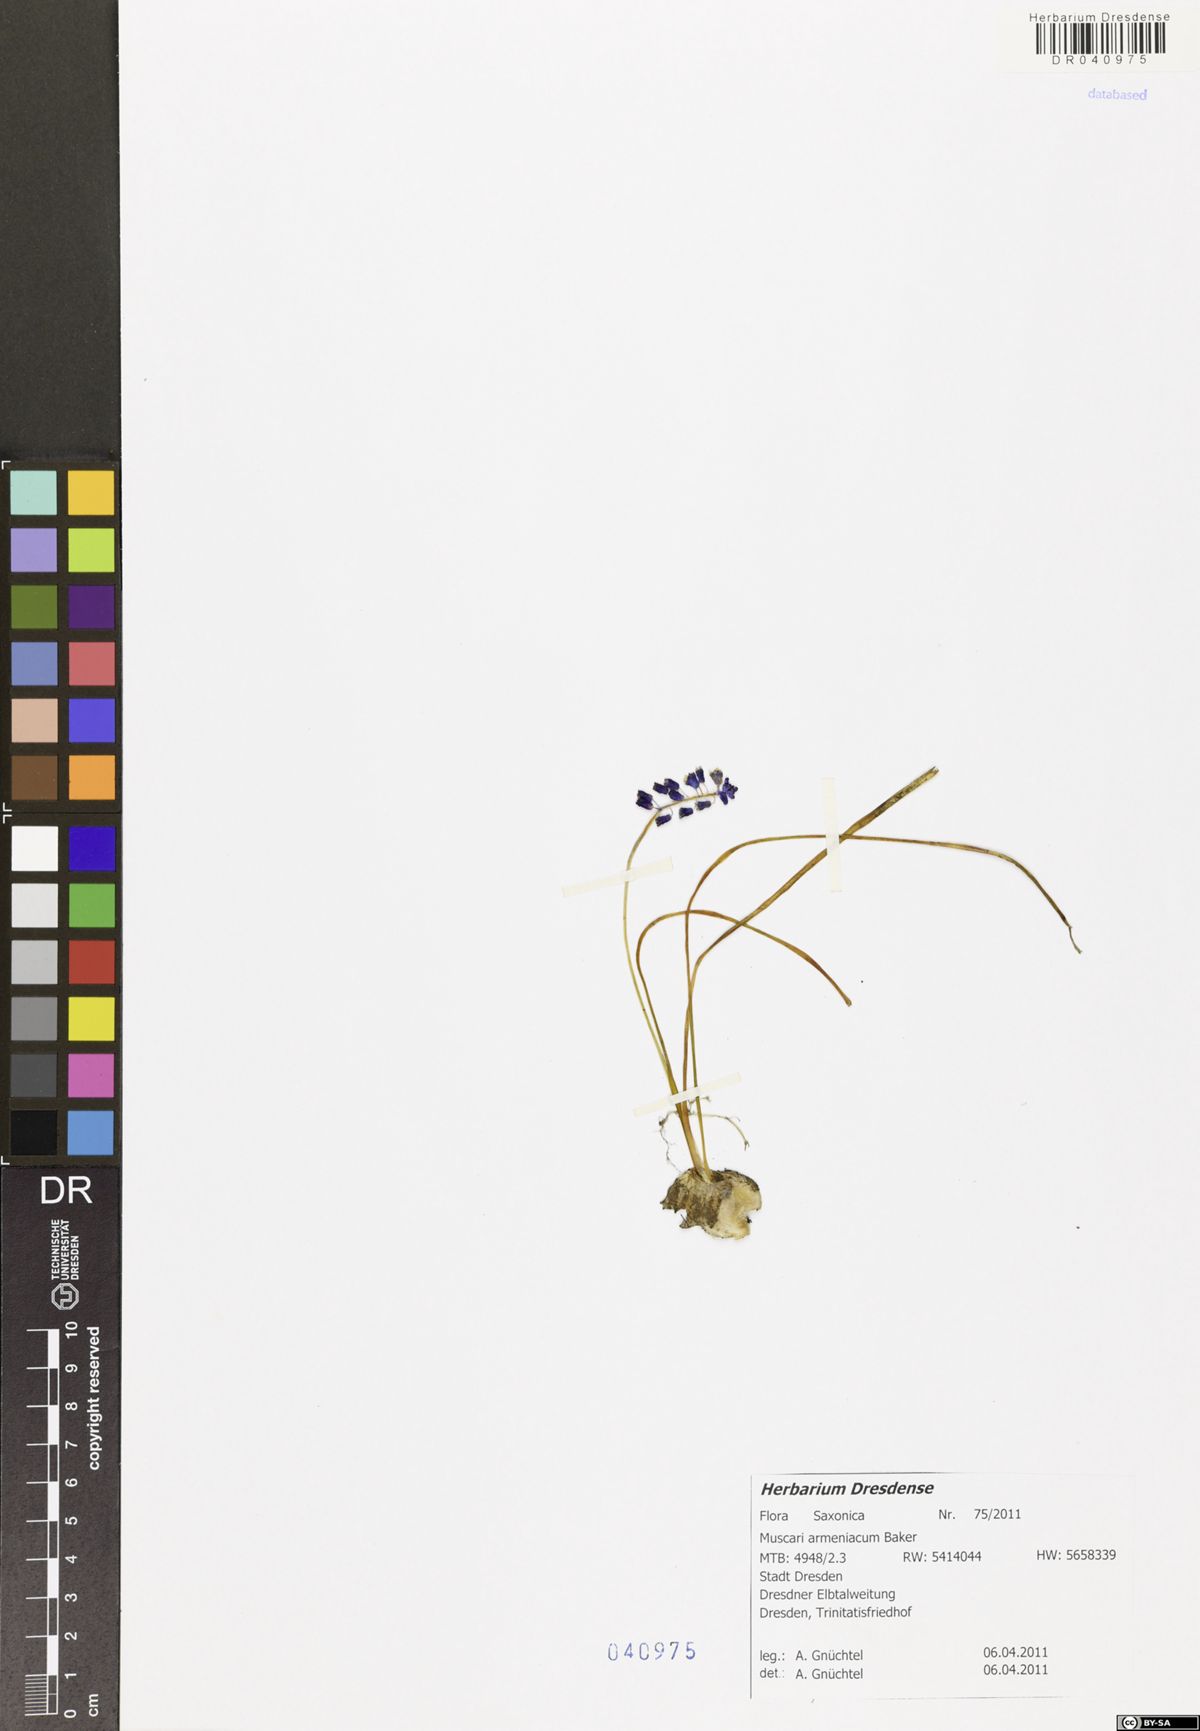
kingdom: Plantae
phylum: Tracheophyta
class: Liliopsida
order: Asparagales
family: Asparagaceae
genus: Muscari
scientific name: Muscari armeniacum
